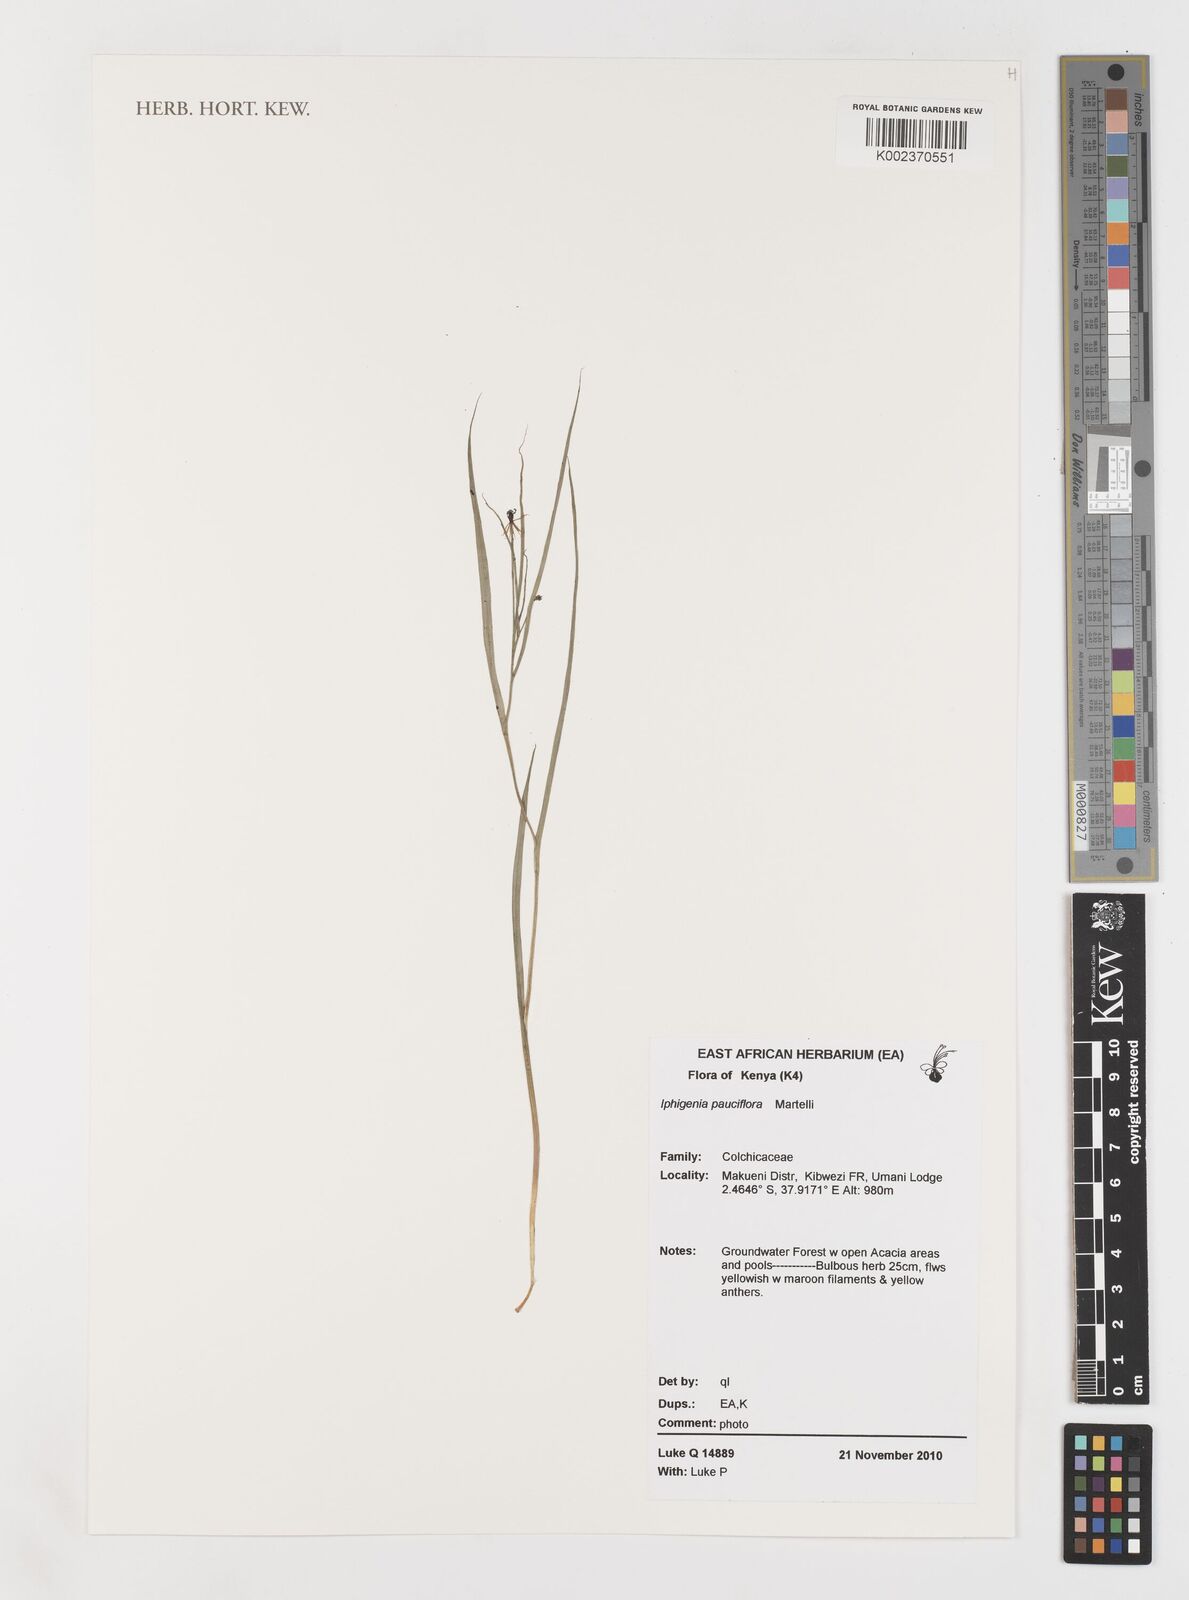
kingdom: Plantae
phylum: Tracheophyta
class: Liliopsida
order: Liliales
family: Colchicaceae
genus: Iphigenia
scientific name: Iphigenia pauciflora
